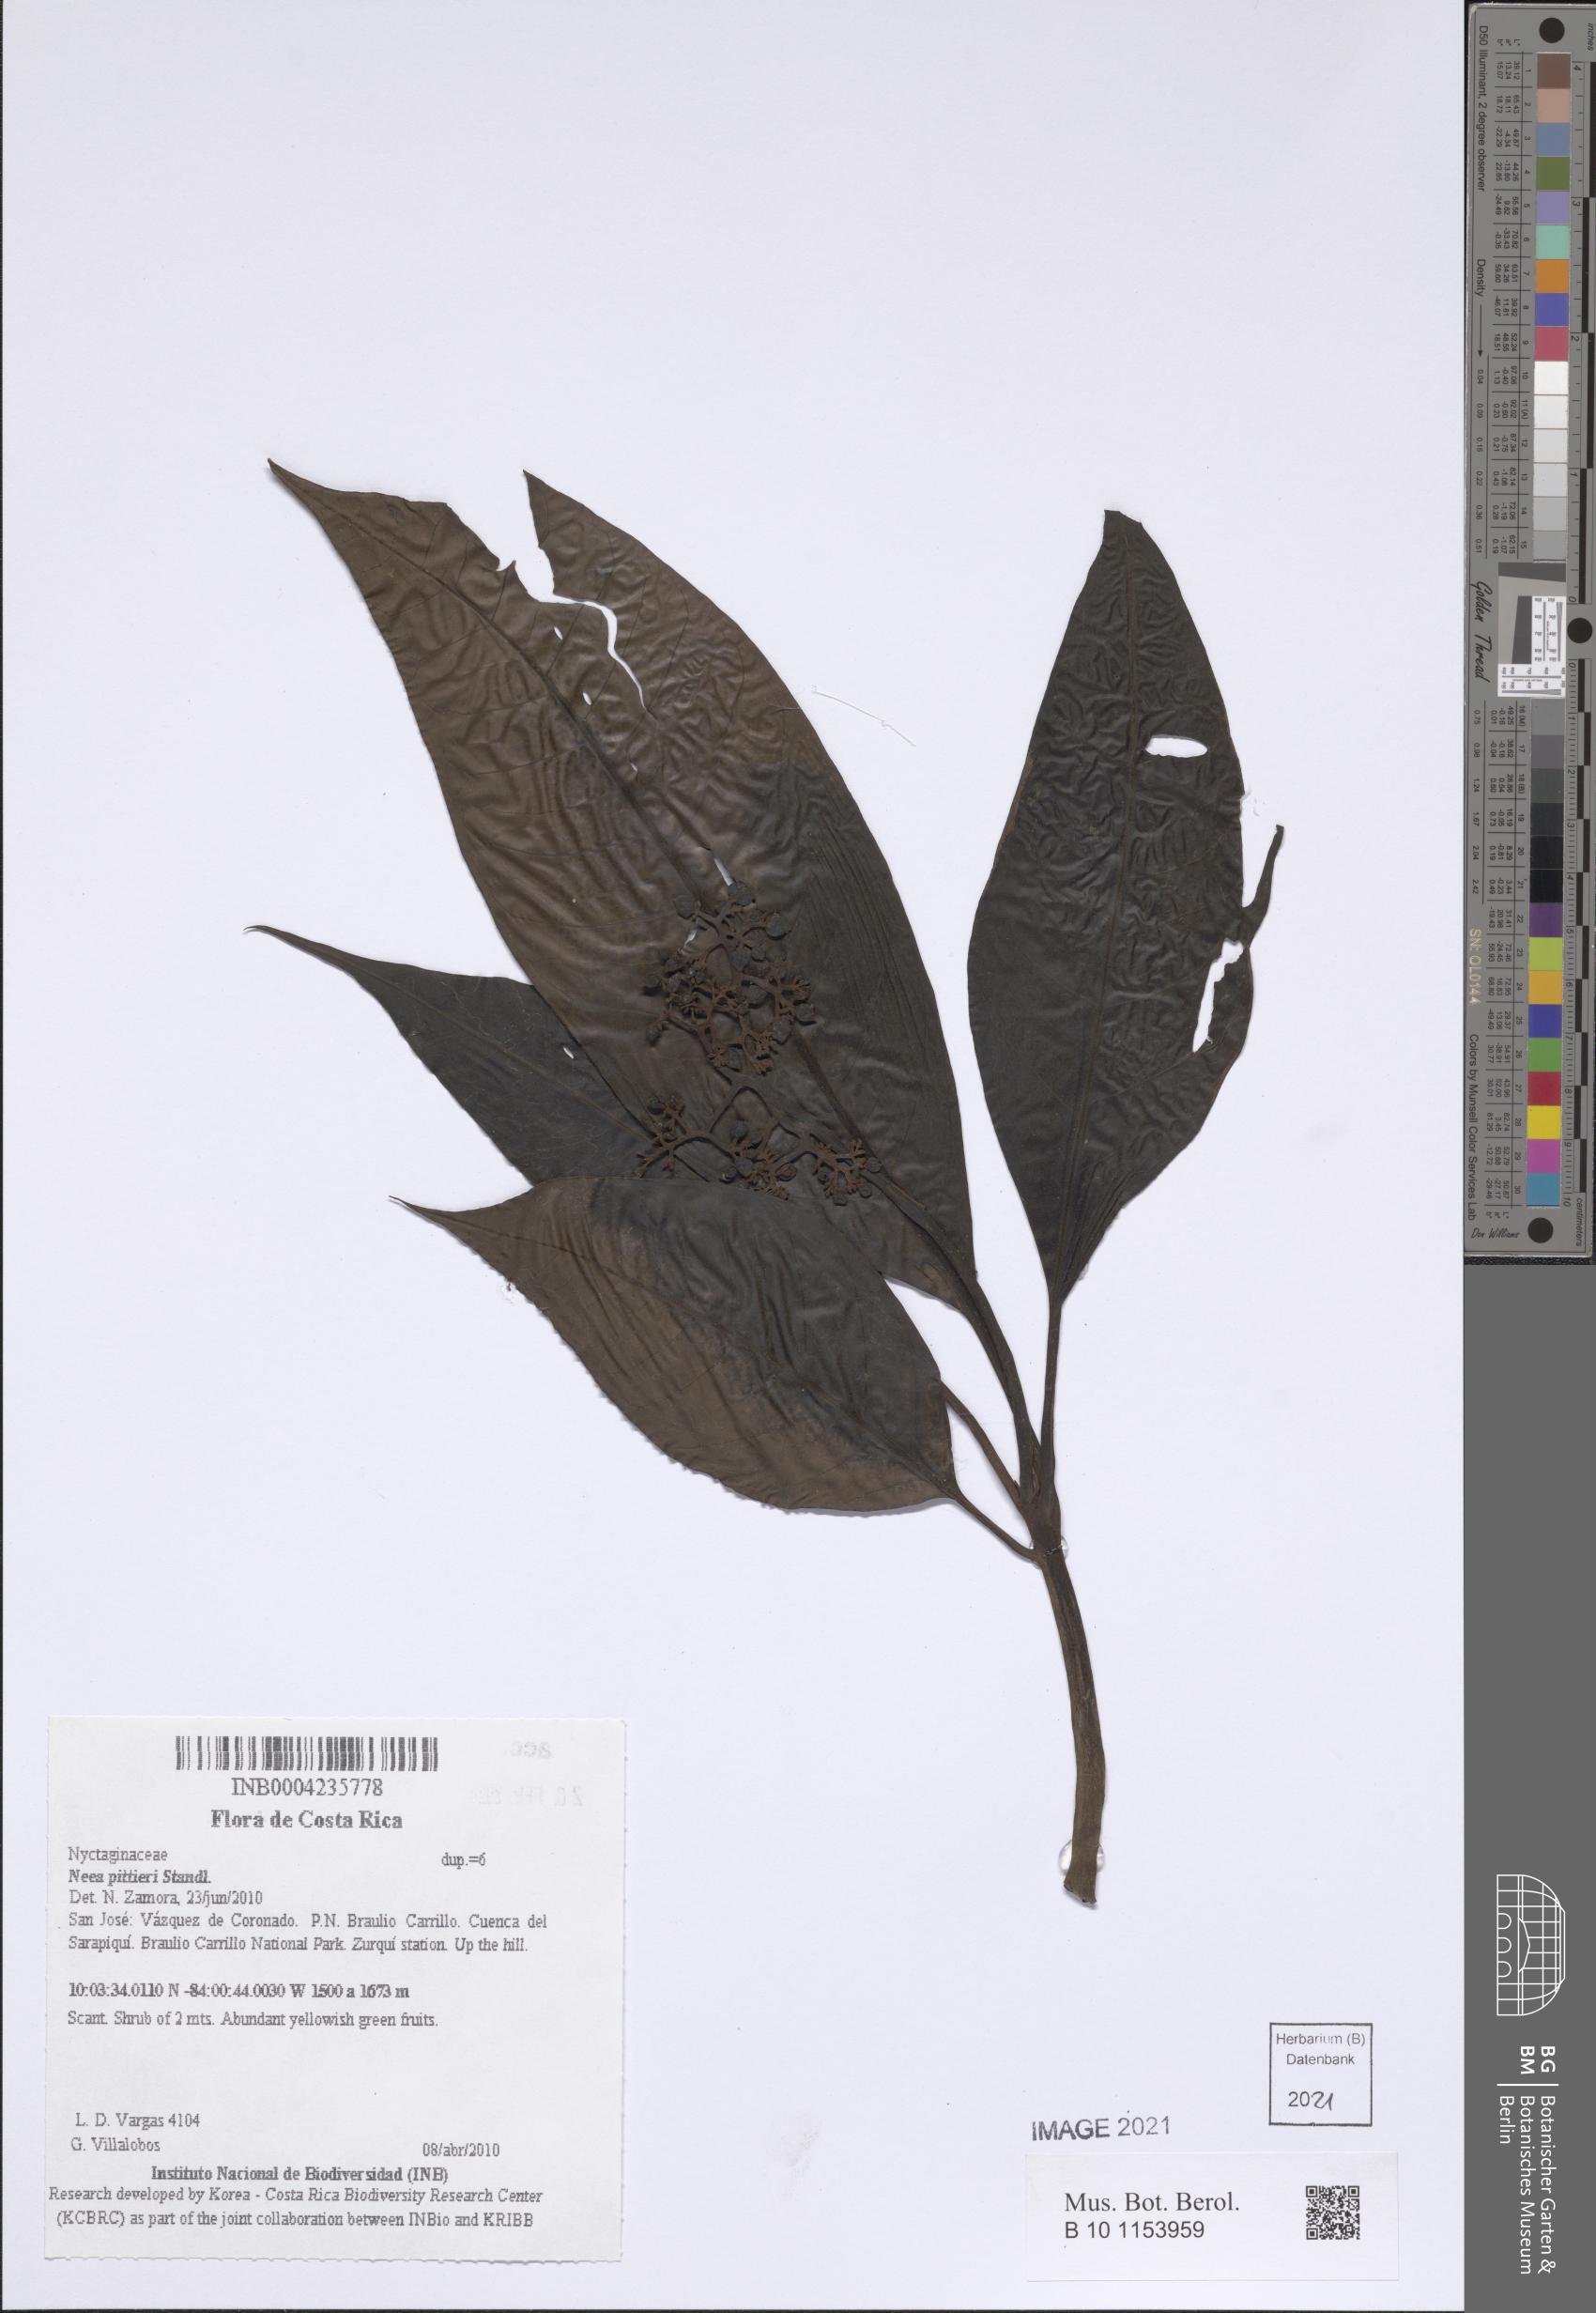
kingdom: Plantae
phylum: Tracheophyta
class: Magnoliopsida
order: Caryophyllales
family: Nyctaginaceae
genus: Neea
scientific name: Neea pittieri
